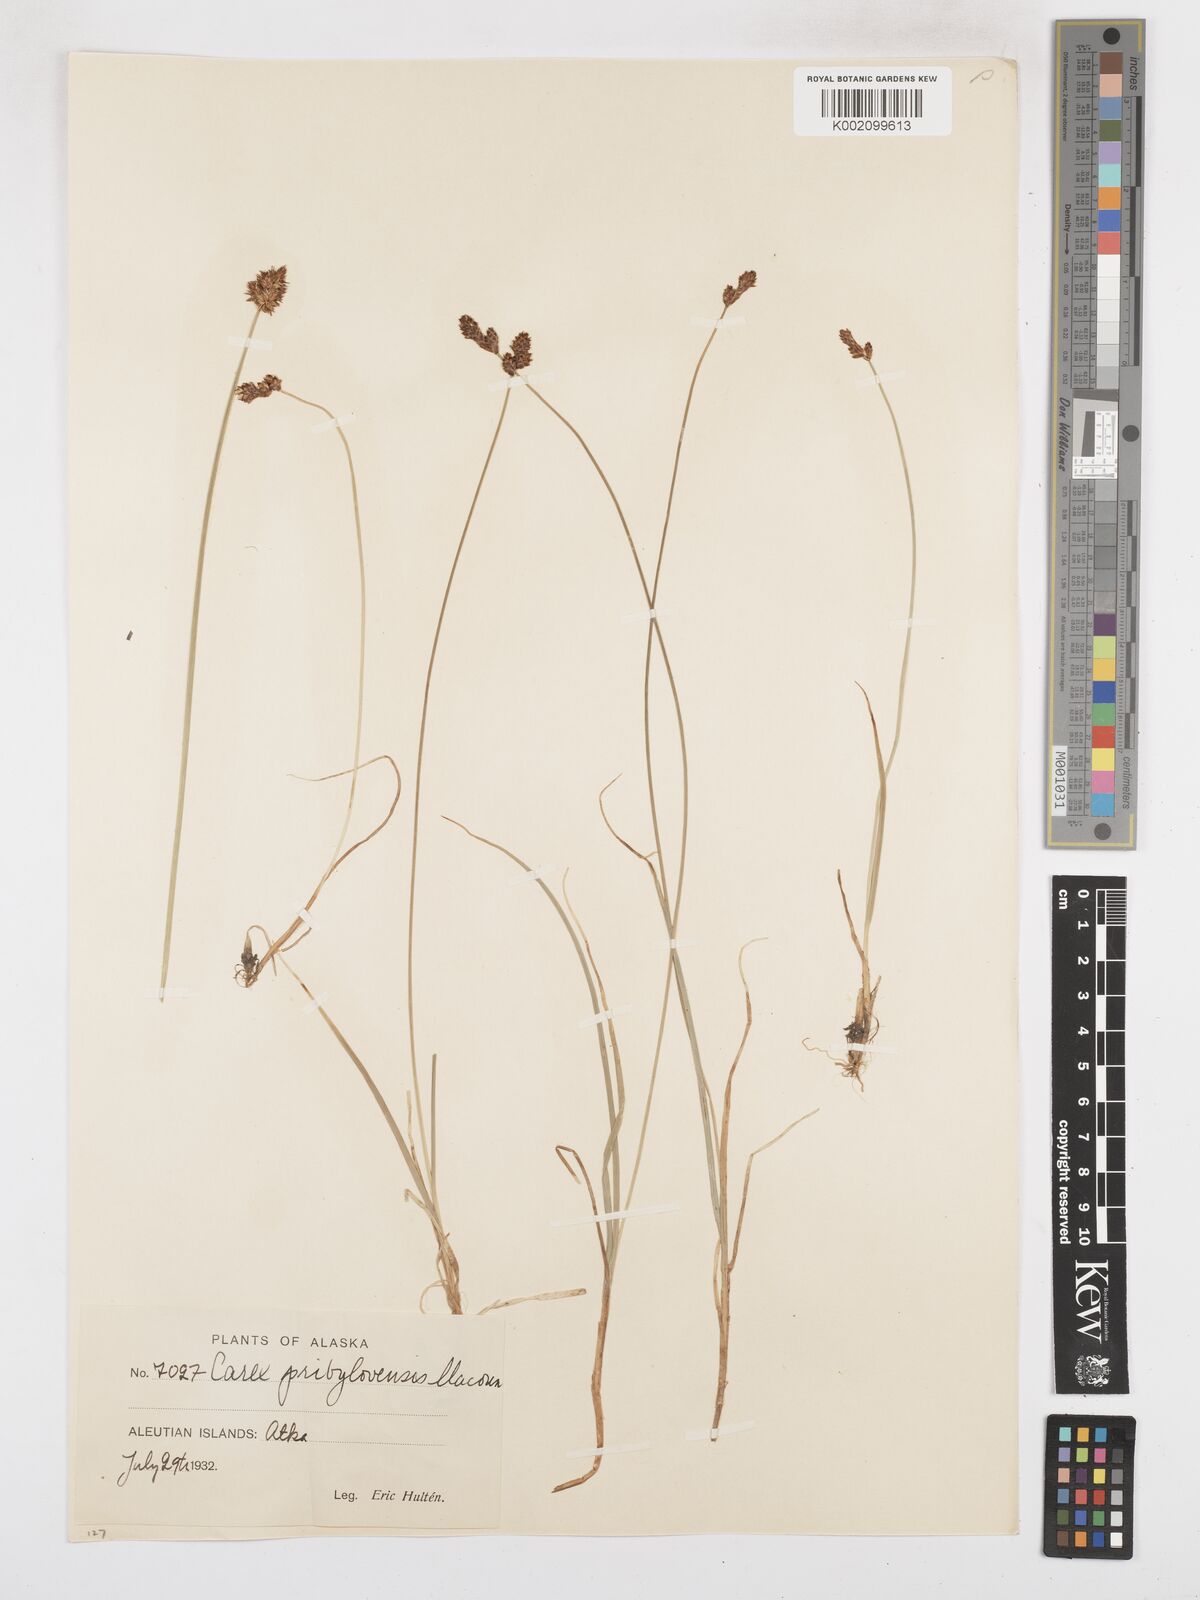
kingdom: Plantae
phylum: Tracheophyta
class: Liliopsida
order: Poales
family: Cyperaceae
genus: Carex
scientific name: Carex glareosa
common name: Clustered sedge
